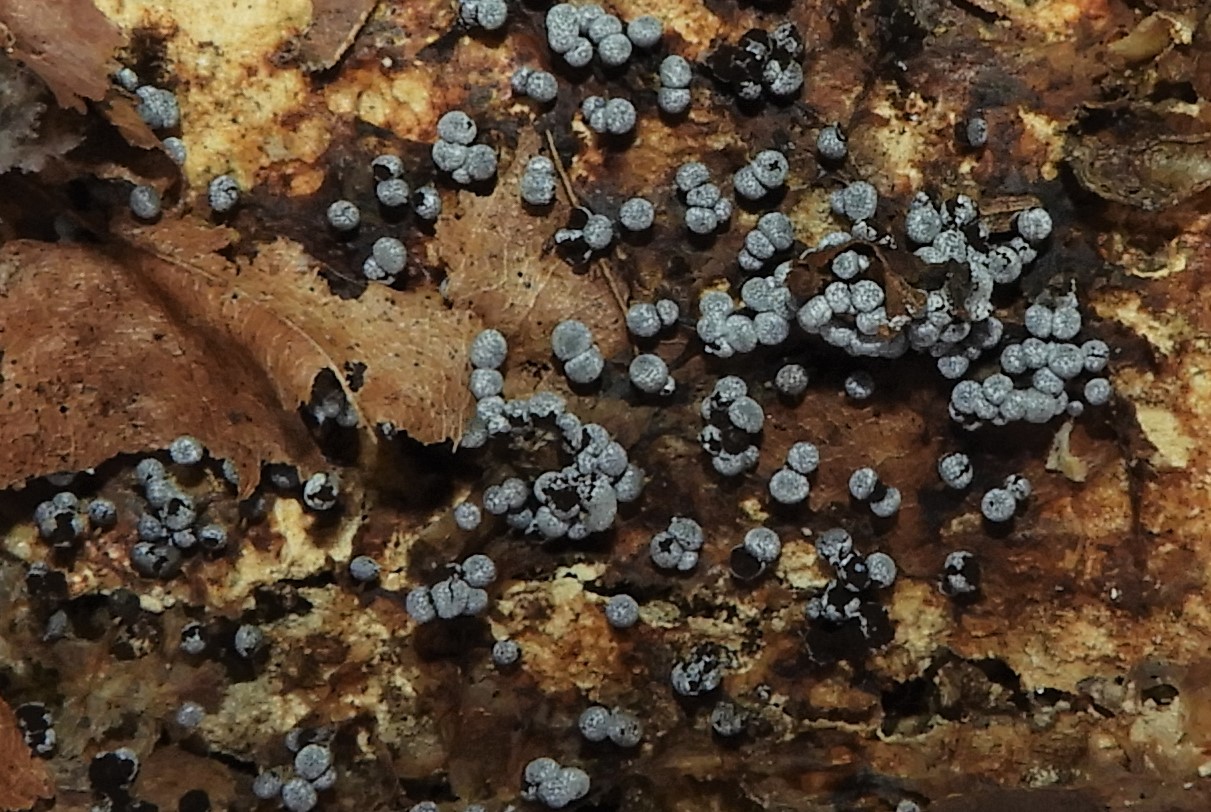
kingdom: Protozoa
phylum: Mycetozoa
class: Myxomycetes
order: Physarales
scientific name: Physarales
